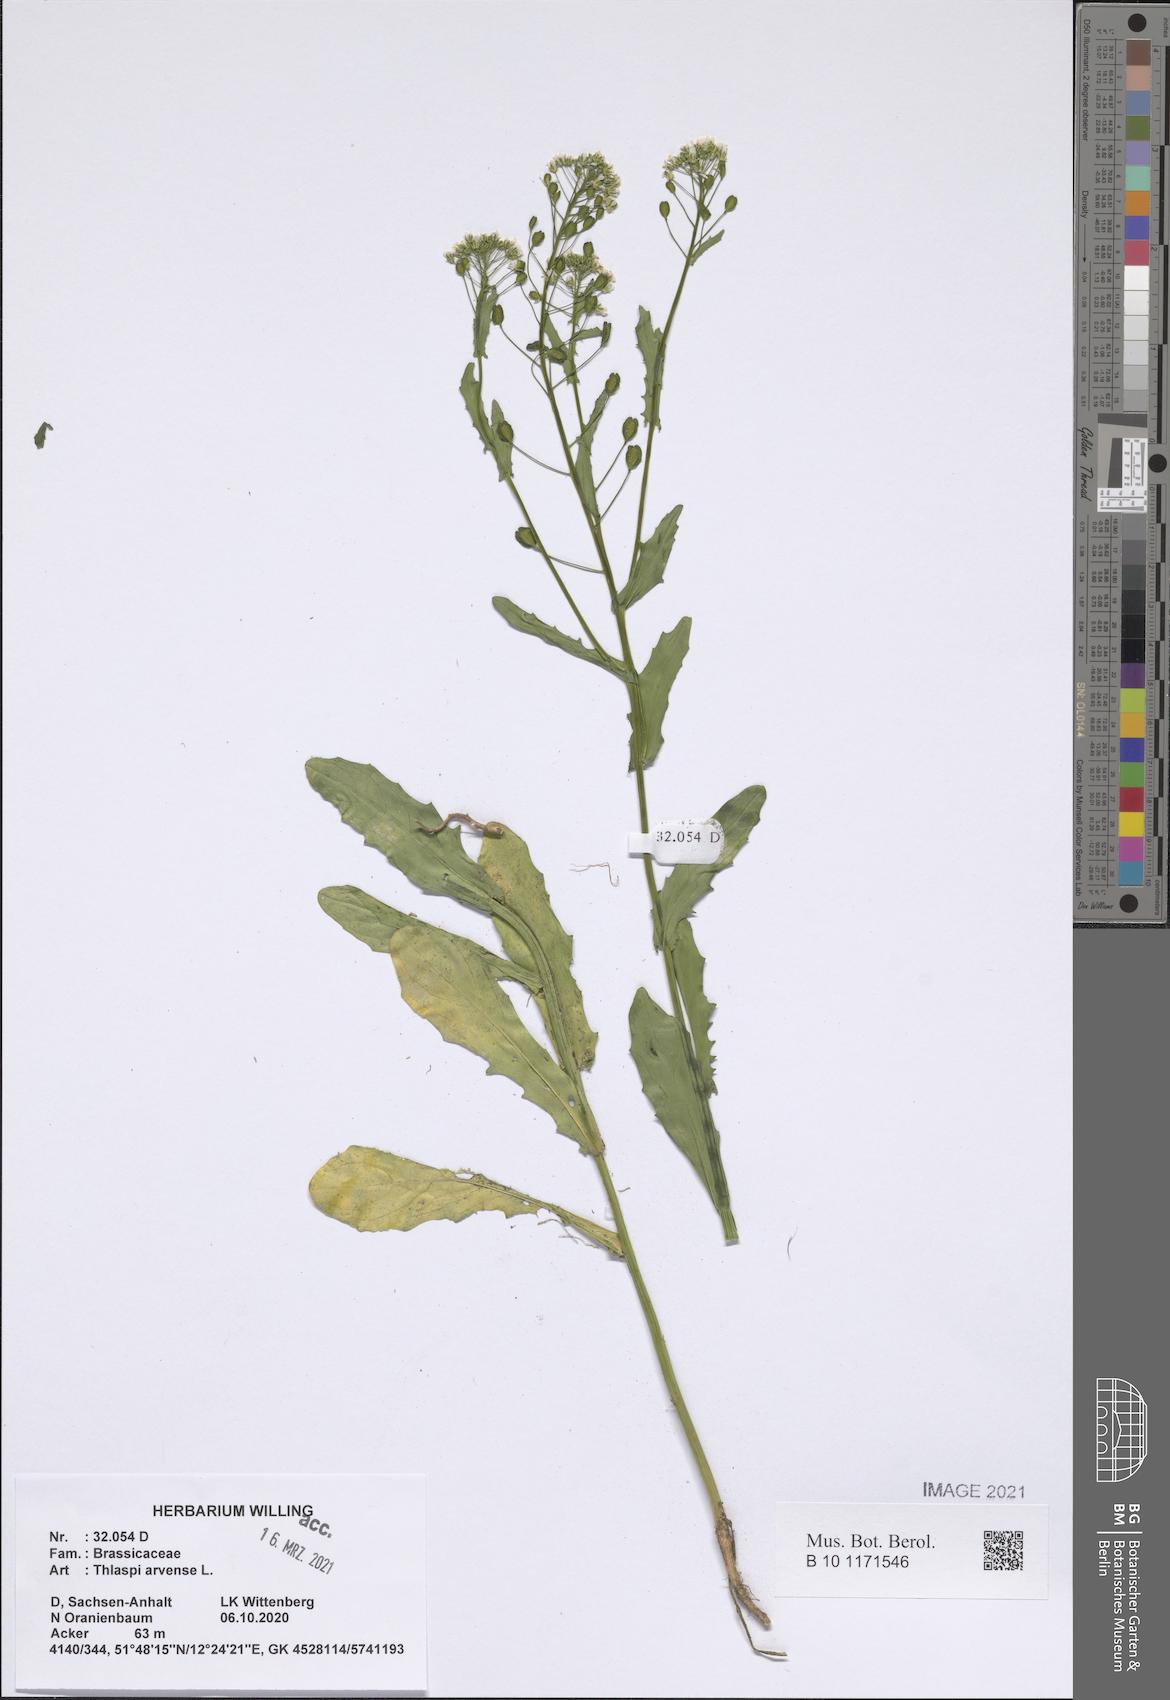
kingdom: Plantae
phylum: Tracheophyta
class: Magnoliopsida
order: Brassicales
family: Brassicaceae
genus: Thlaspi
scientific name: Thlaspi arvense
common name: Field pennycress
